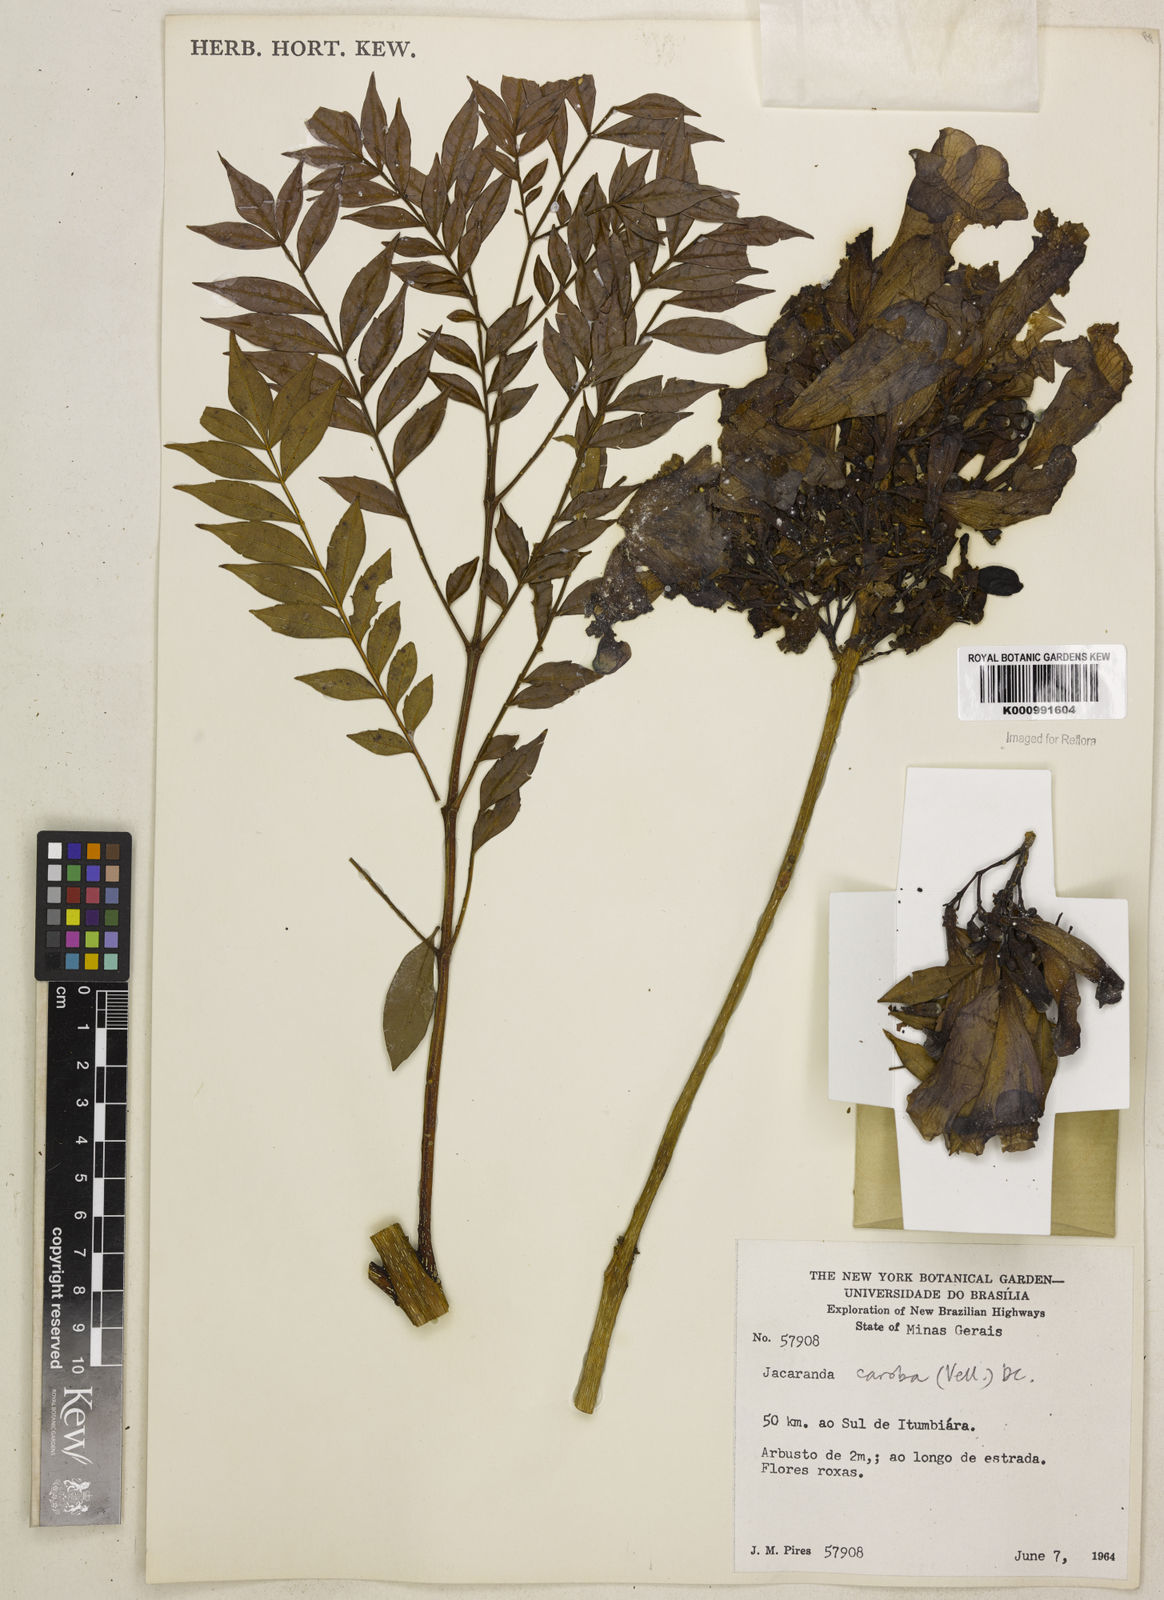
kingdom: Plantae
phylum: Tracheophyta
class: Magnoliopsida
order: Lamiales
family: Bignoniaceae
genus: Jacaranda
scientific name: Jacaranda caroba
